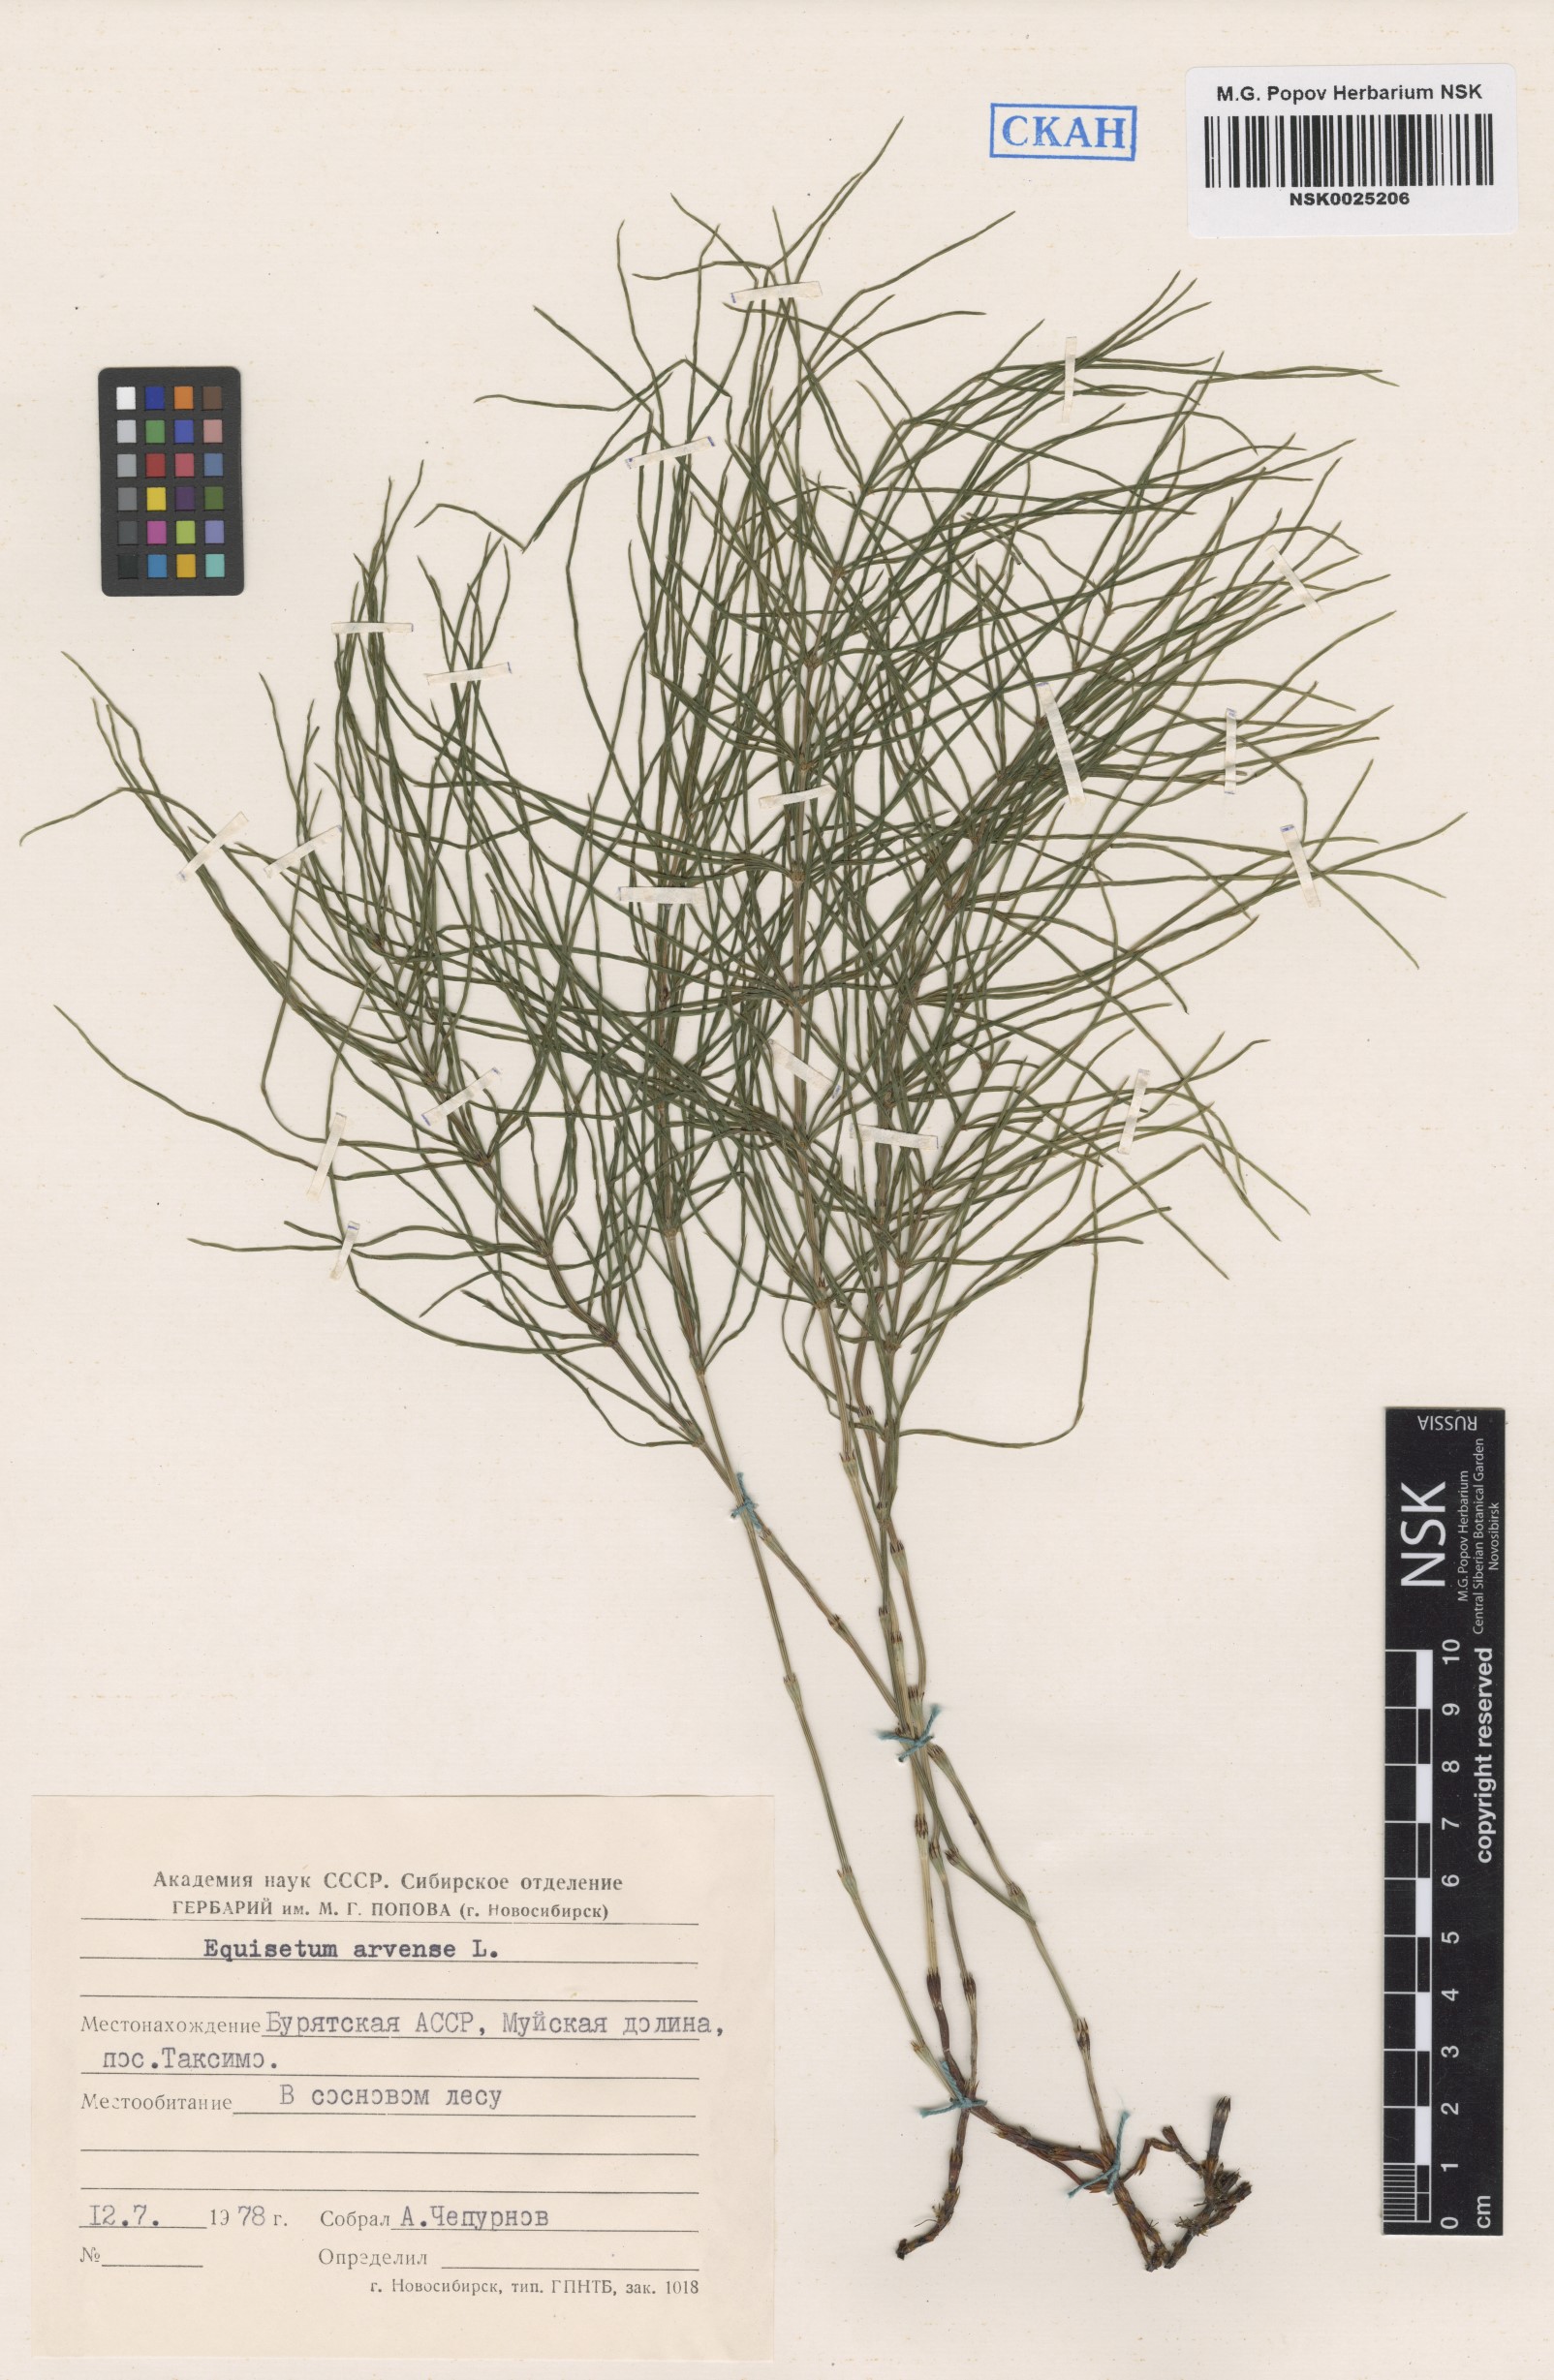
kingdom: Plantae
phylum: Tracheophyta
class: Polypodiopsida
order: Equisetales
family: Equisetaceae
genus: Equisetum
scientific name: Equisetum arvense
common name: Field horsetail
